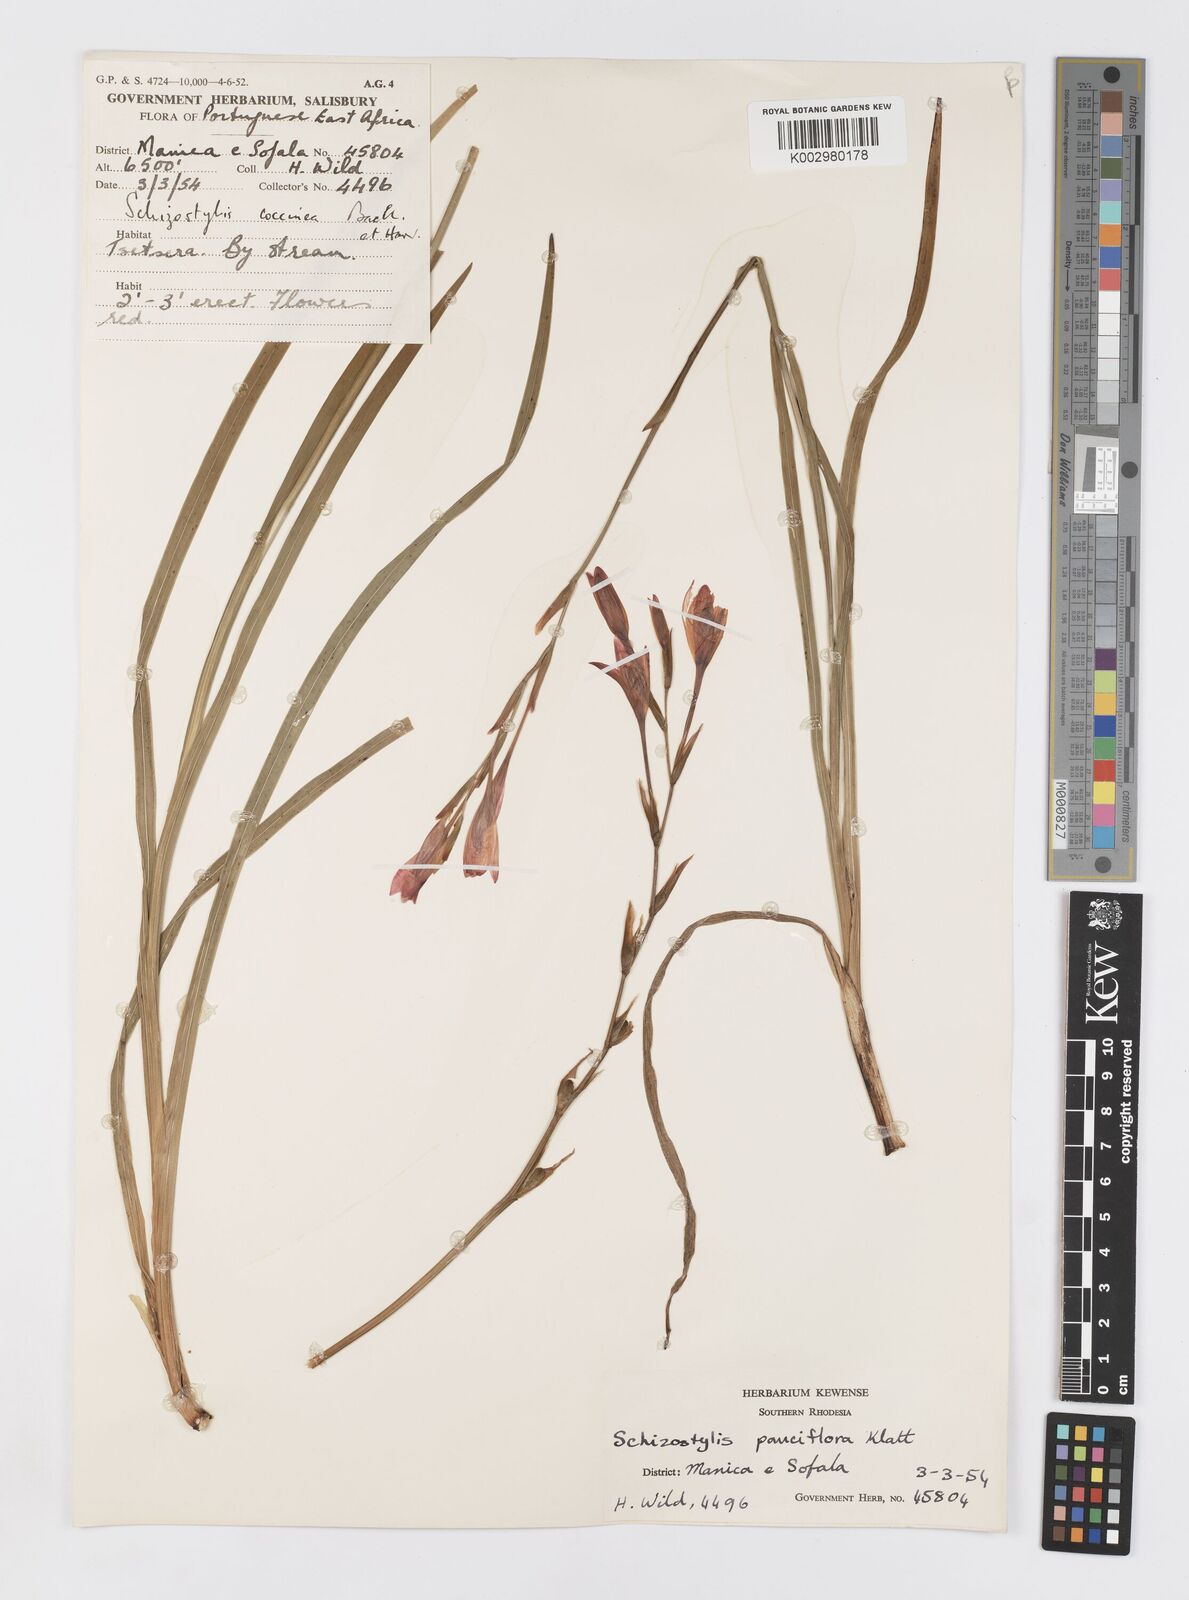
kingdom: Plantae
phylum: Tracheophyta
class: Liliopsida
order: Asparagales
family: Iridaceae
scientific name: Iridaceae
